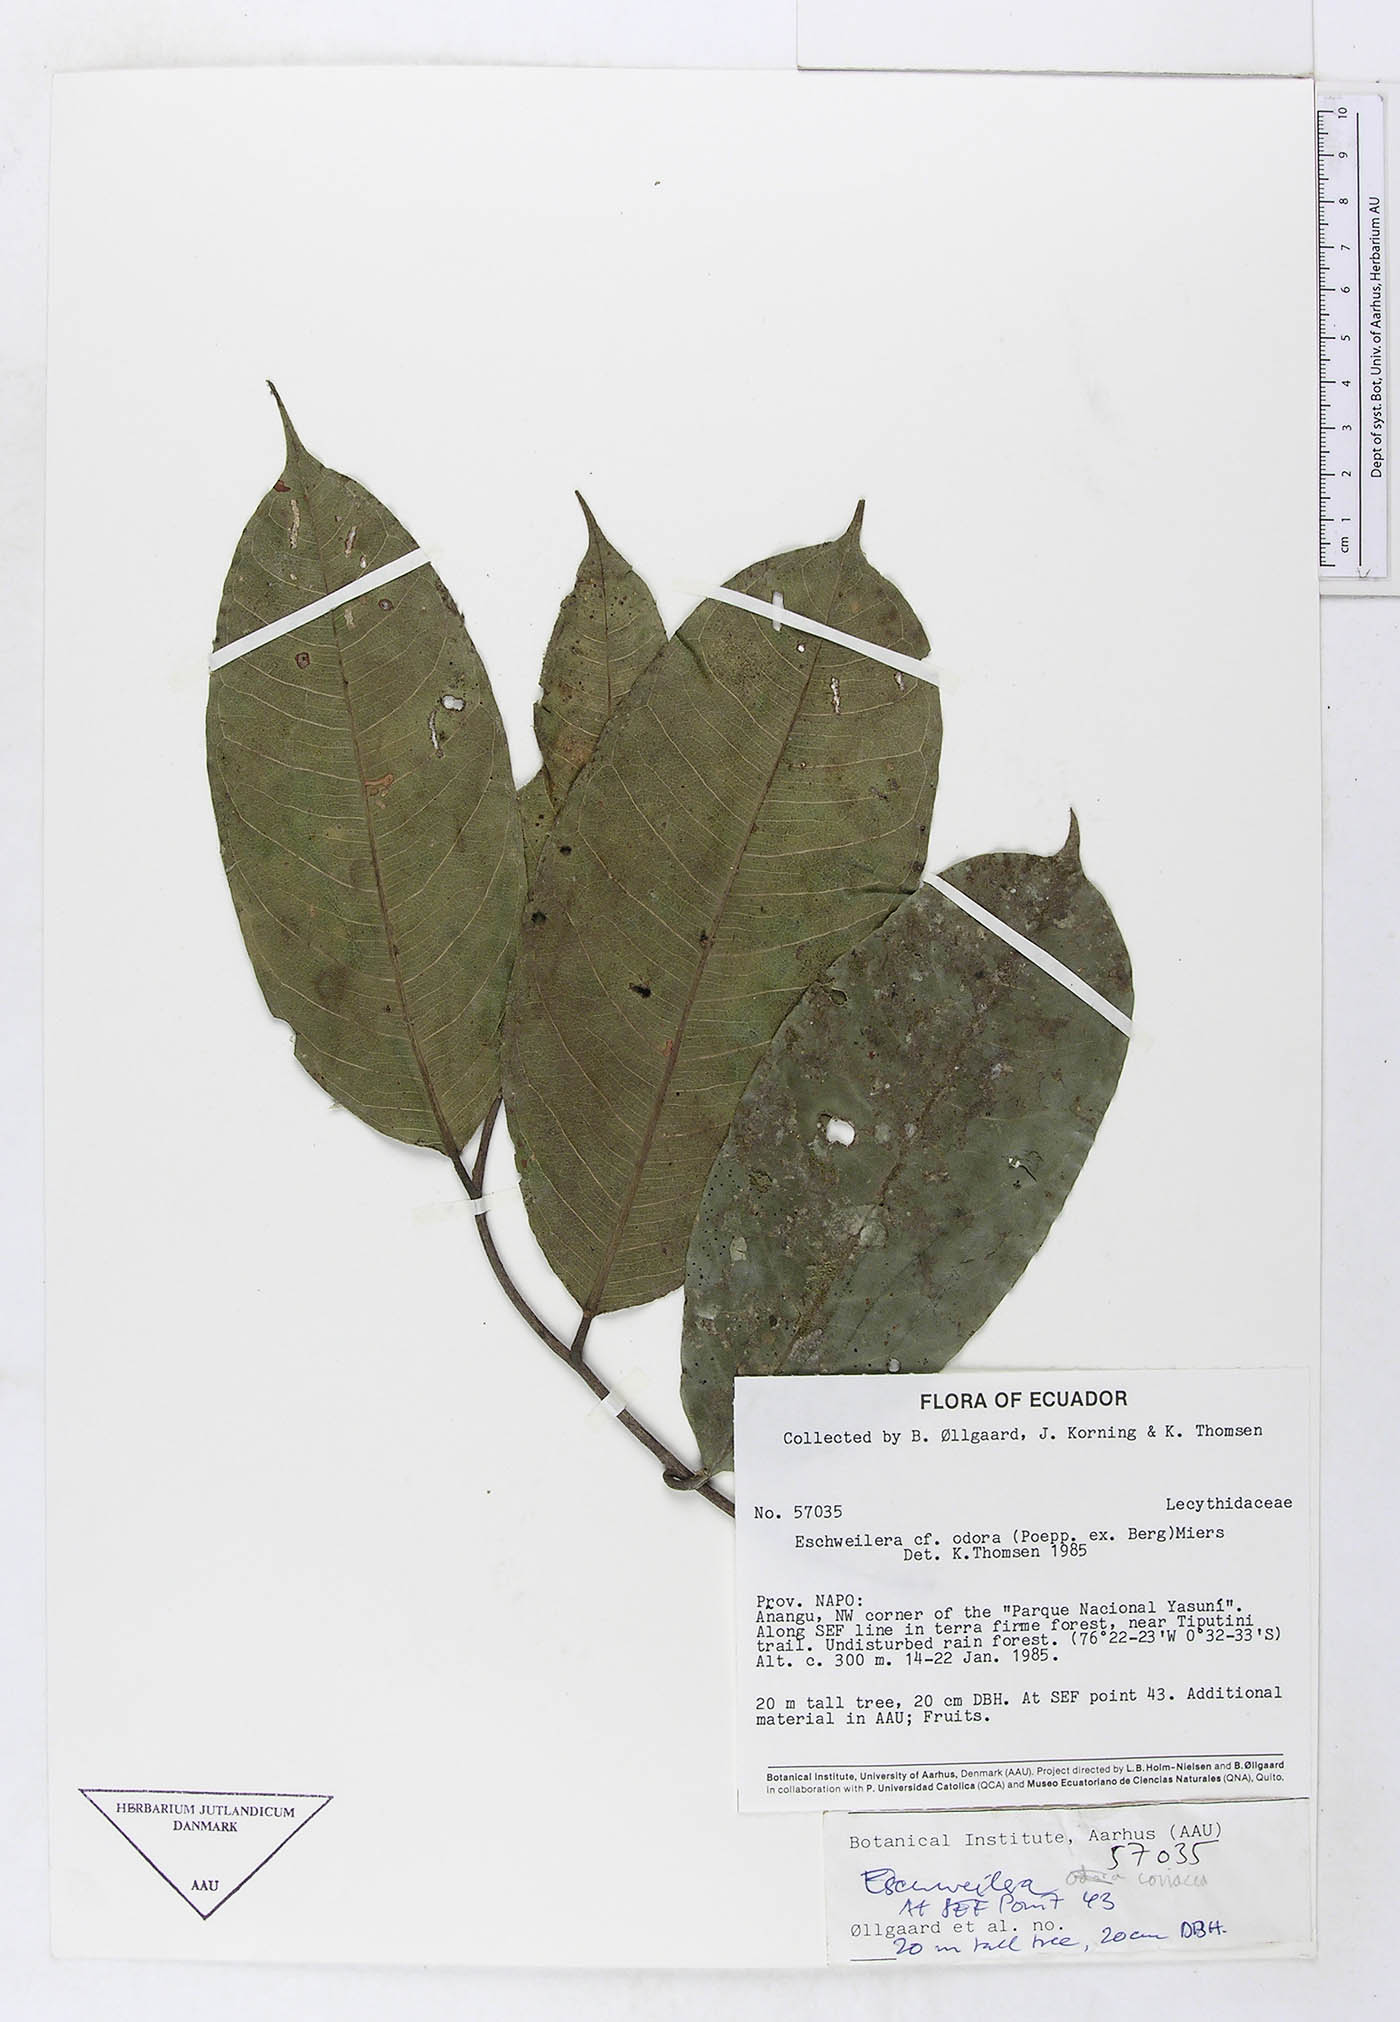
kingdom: Plantae
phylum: Tracheophyta
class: Magnoliopsida
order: Ericales
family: Lecythidaceae
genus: Eschweilera
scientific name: Eschweilera coriacea
